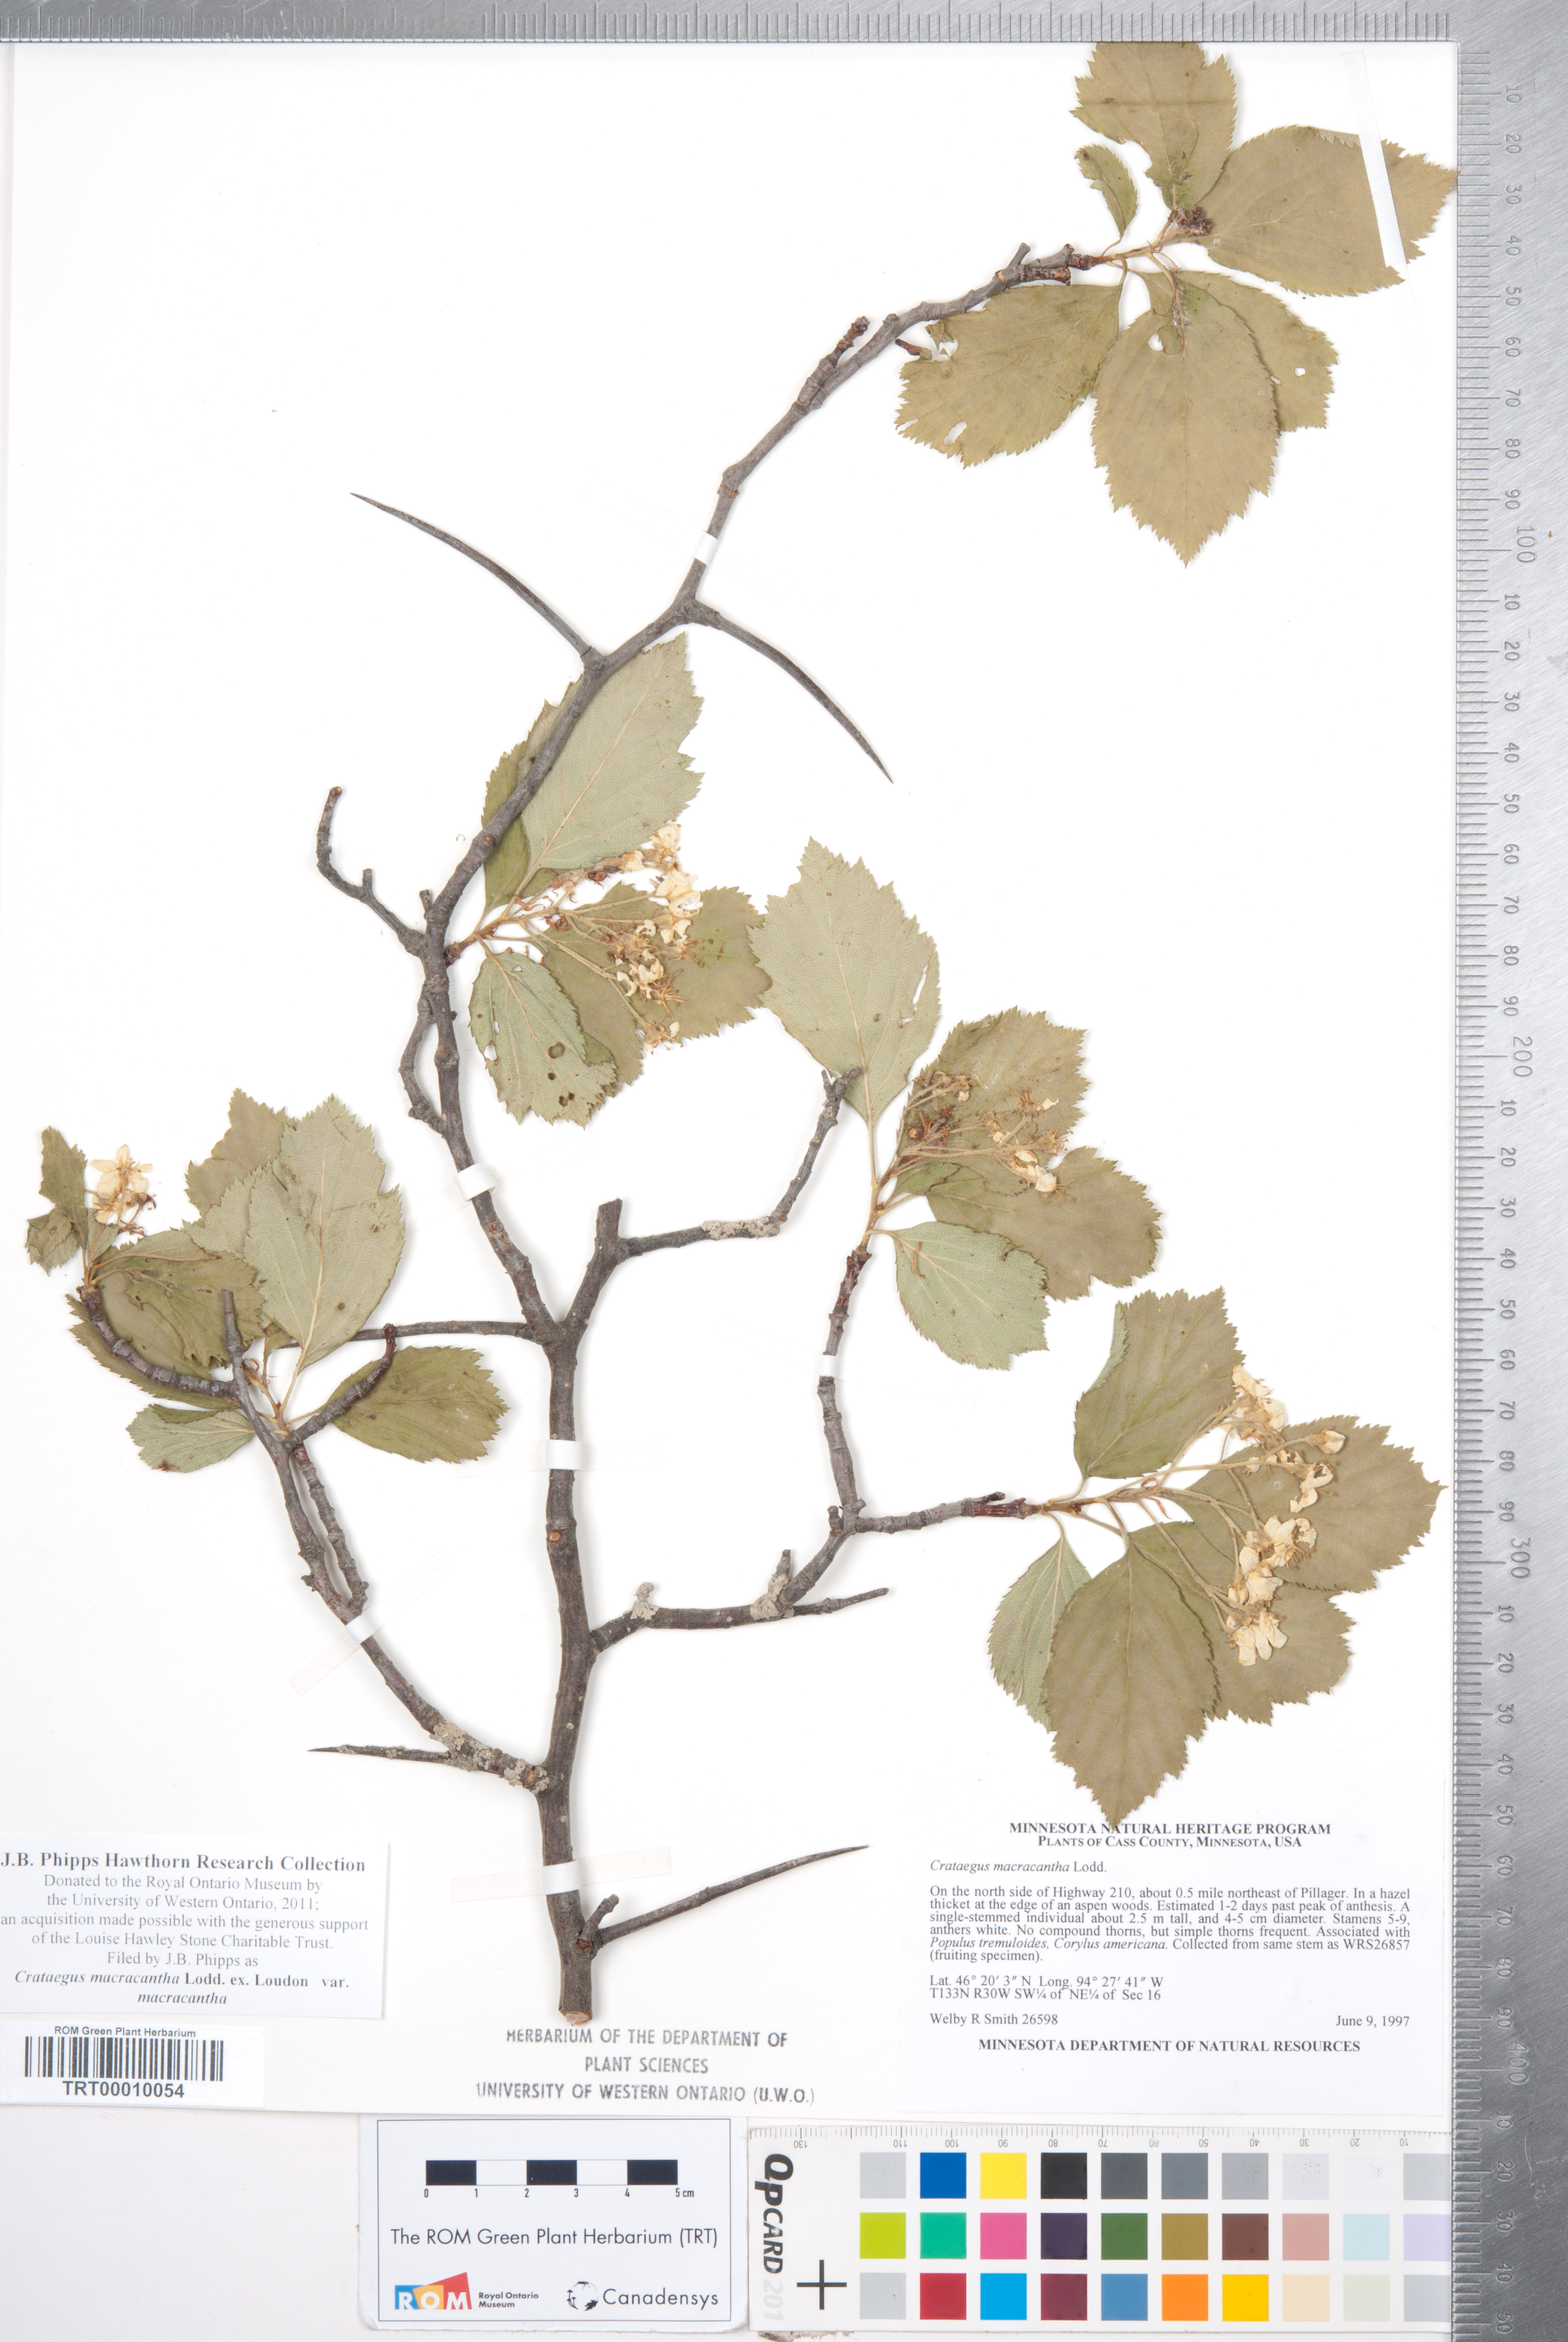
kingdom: Plantae
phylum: Tracheophyta
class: Magnoliopsida
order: Rosales
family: Rosaceae
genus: Crataegus
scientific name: Crataegus macracantha
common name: Large-thorn hawthorn
